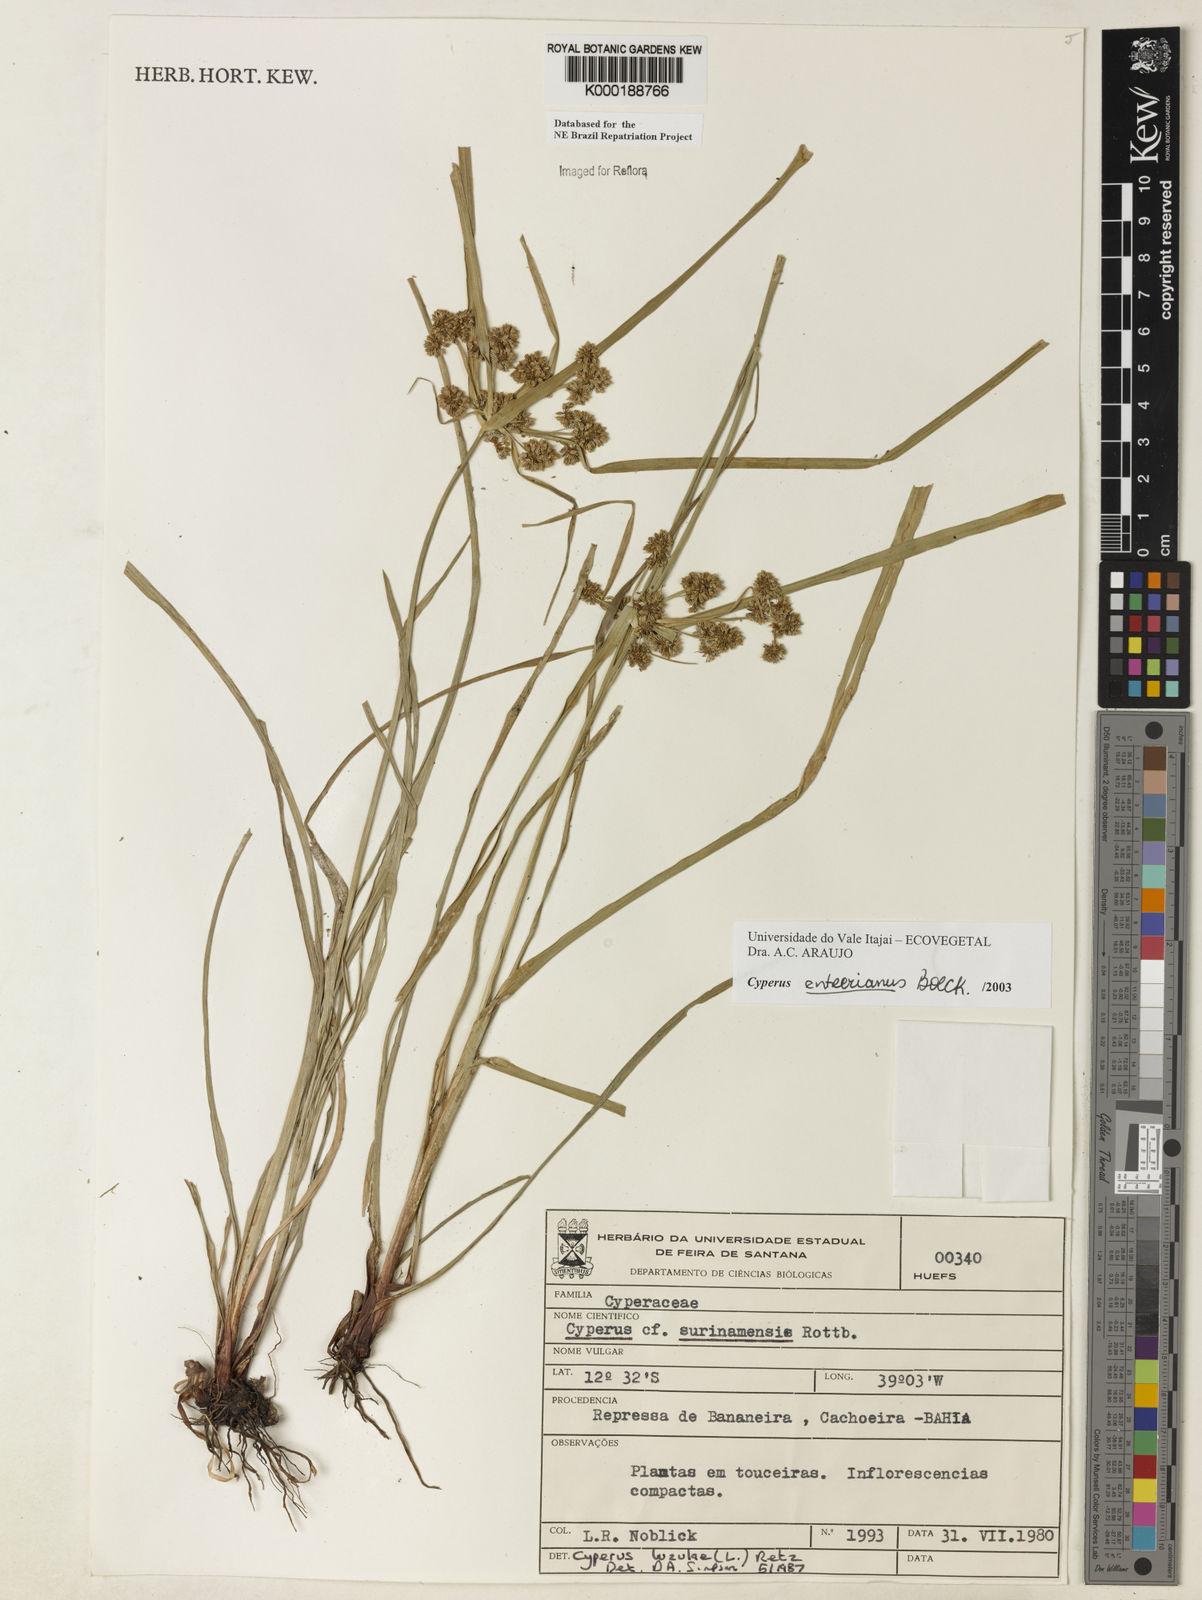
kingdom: Plantae
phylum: Tracheophyta
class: Liliopsida
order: Poales
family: Cyperaceae
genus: Cyperus
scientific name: Cyperus entrerianus
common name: Woodrush flatsedge
